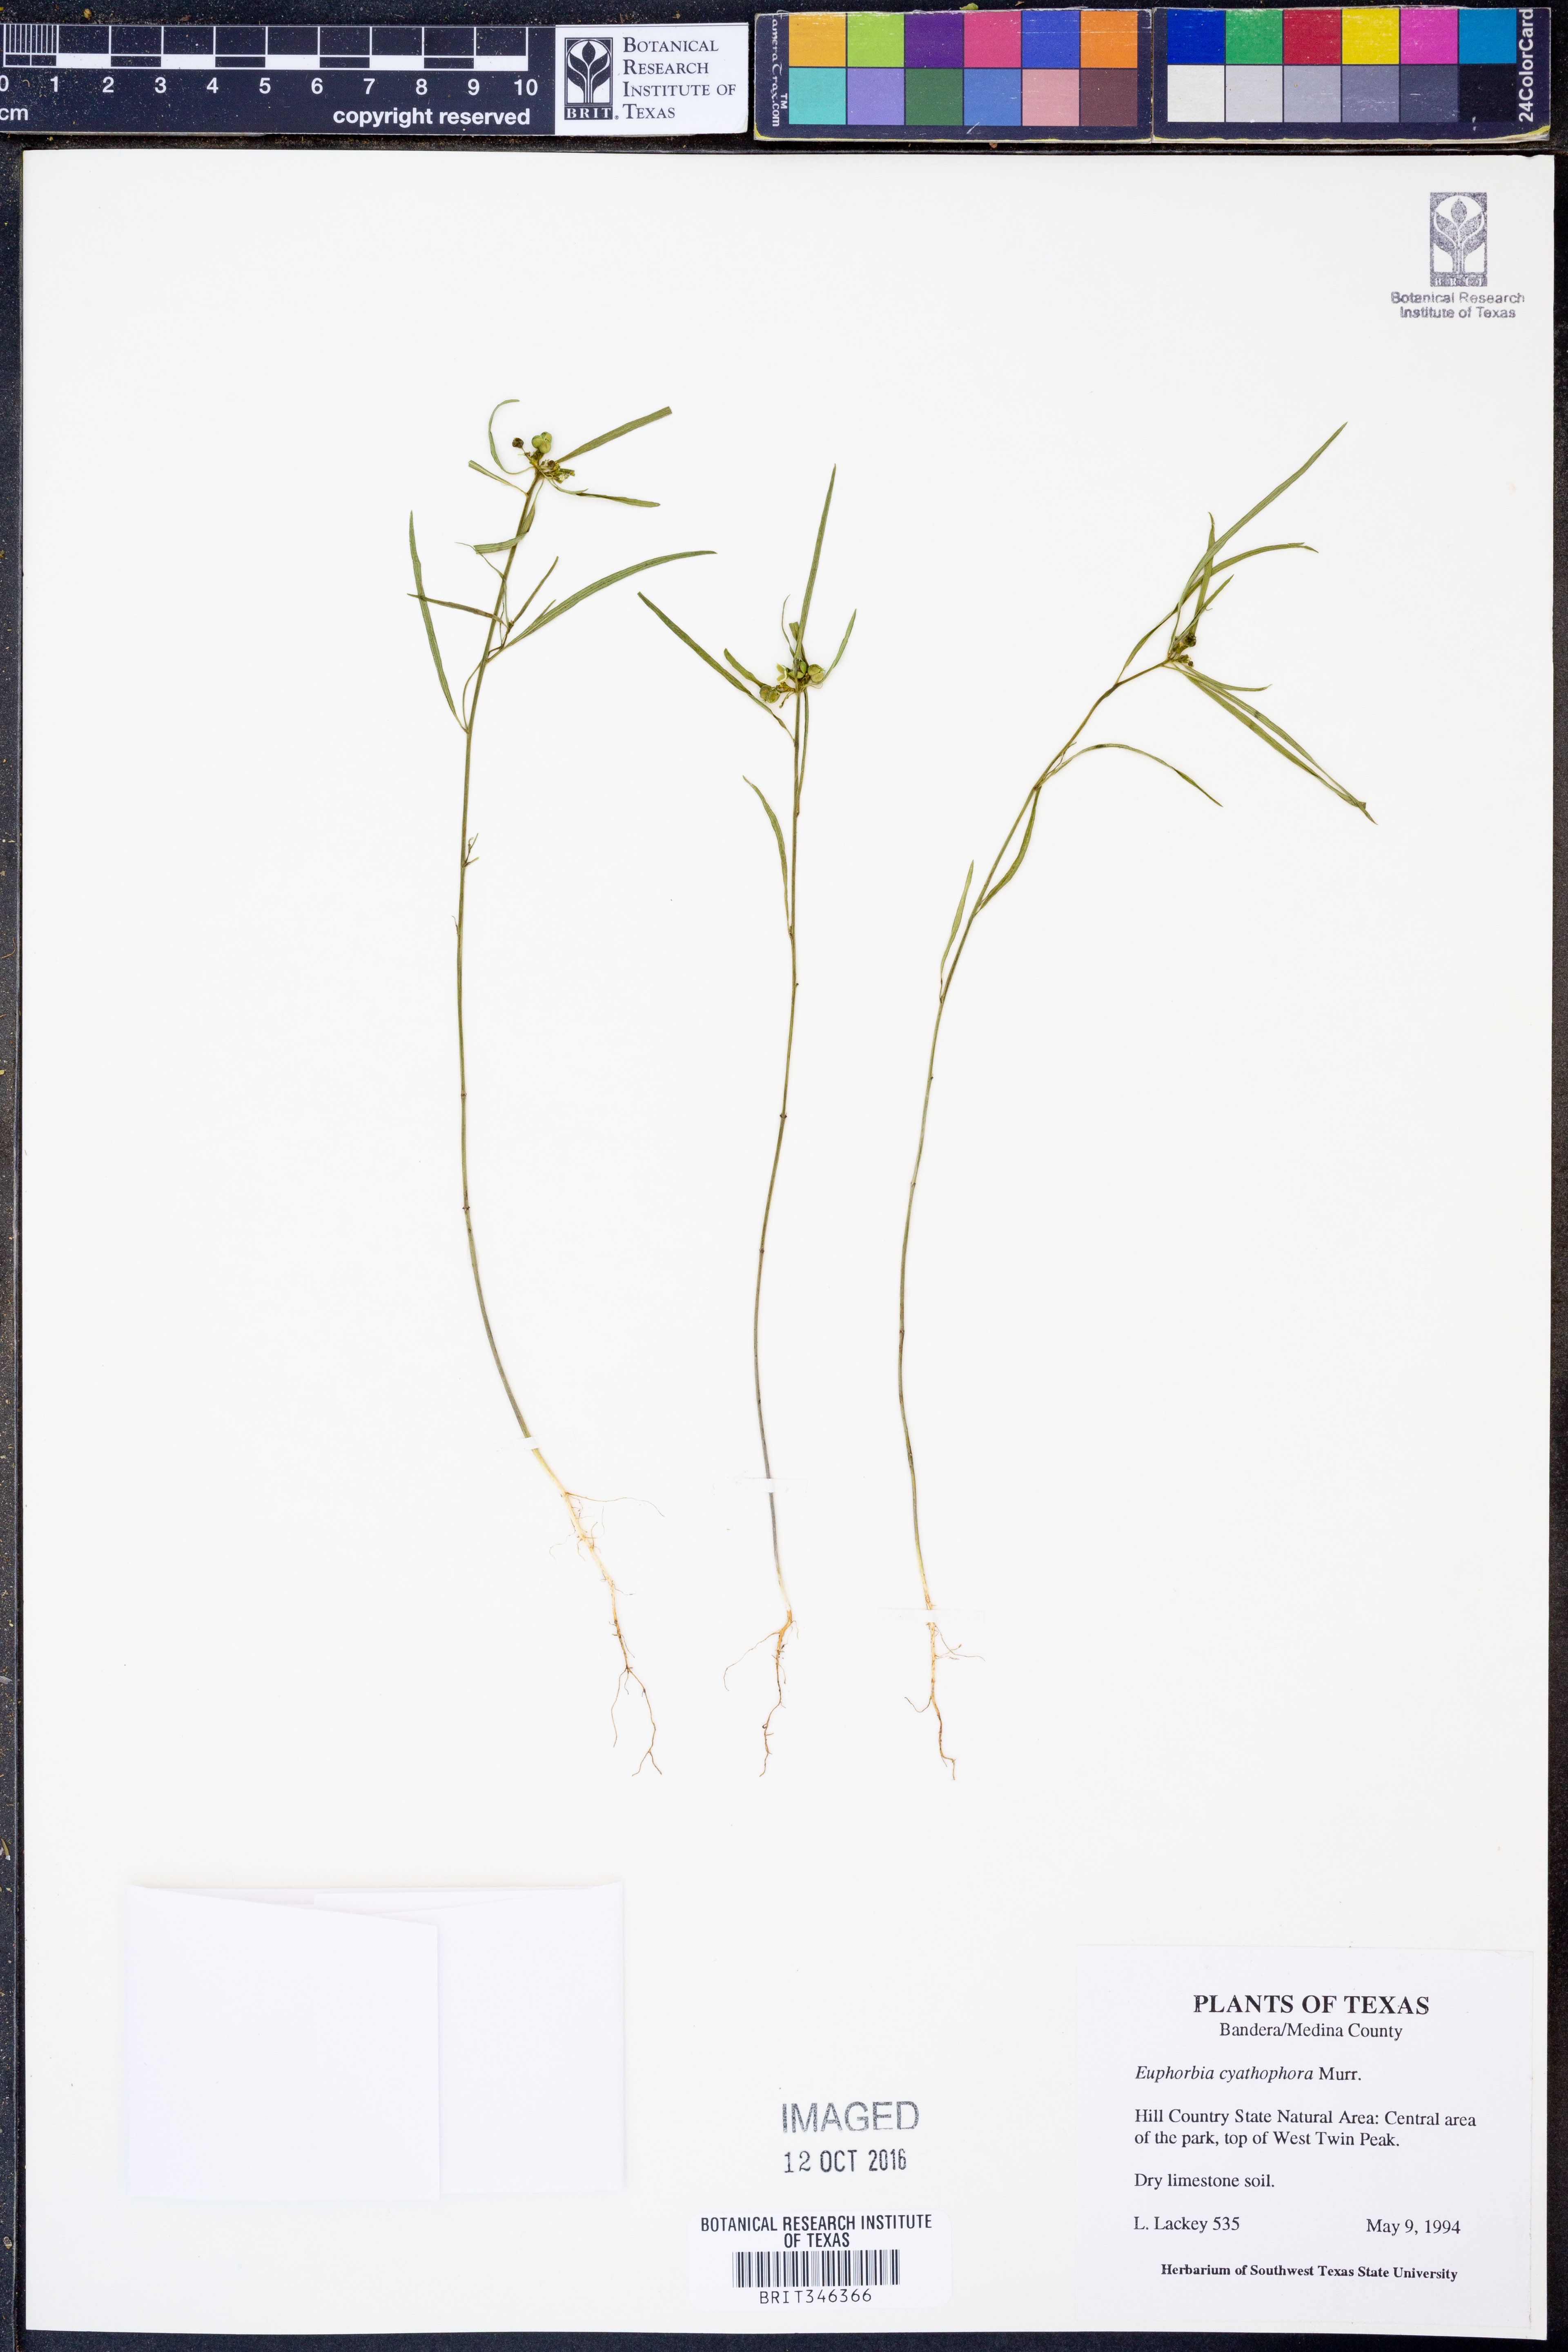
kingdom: Plantae
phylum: Tracheophyta
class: Magnoliopsida
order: Malpighiales
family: Euphorbiaceae
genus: Euphorbia
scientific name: Euphorbia heterophylla
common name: Mexican fireplant
